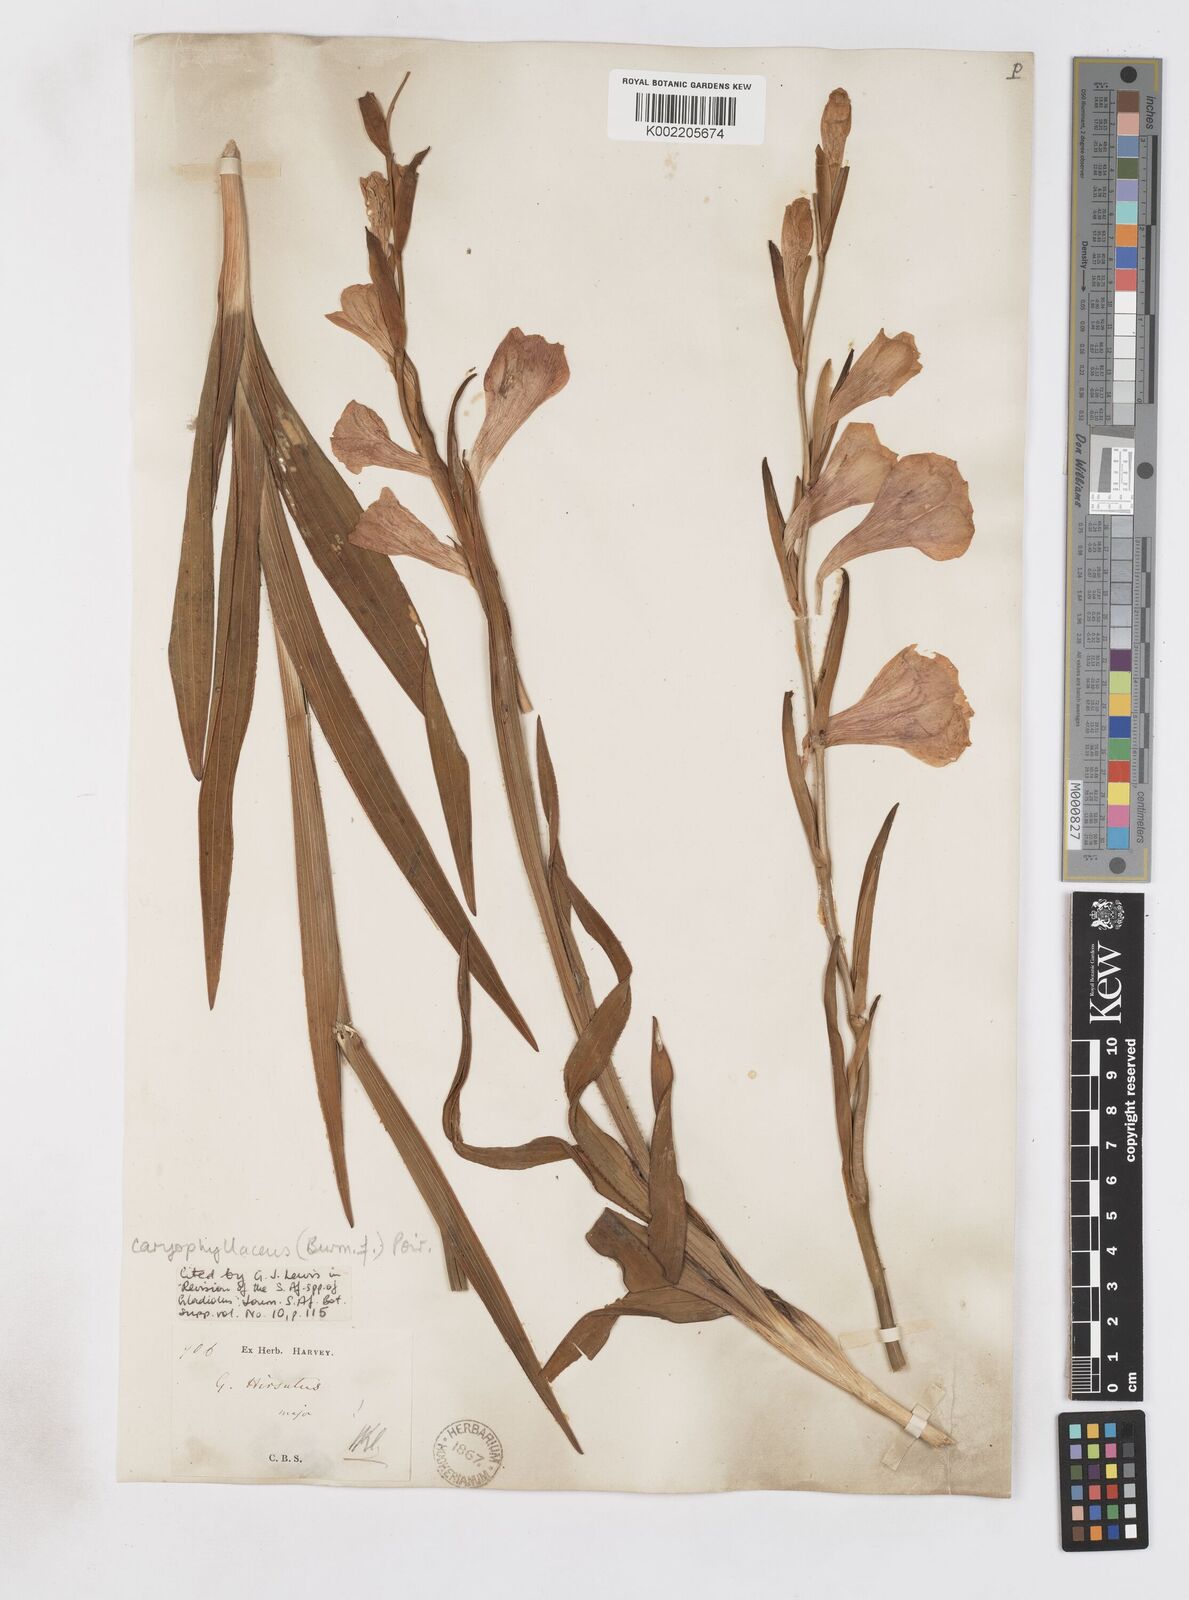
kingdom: Plantae
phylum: Tracheophyta
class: Liliopsida
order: Asparagales
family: Iridaceae
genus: Gladiolus
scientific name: Gladiolus caryophyllaceus
